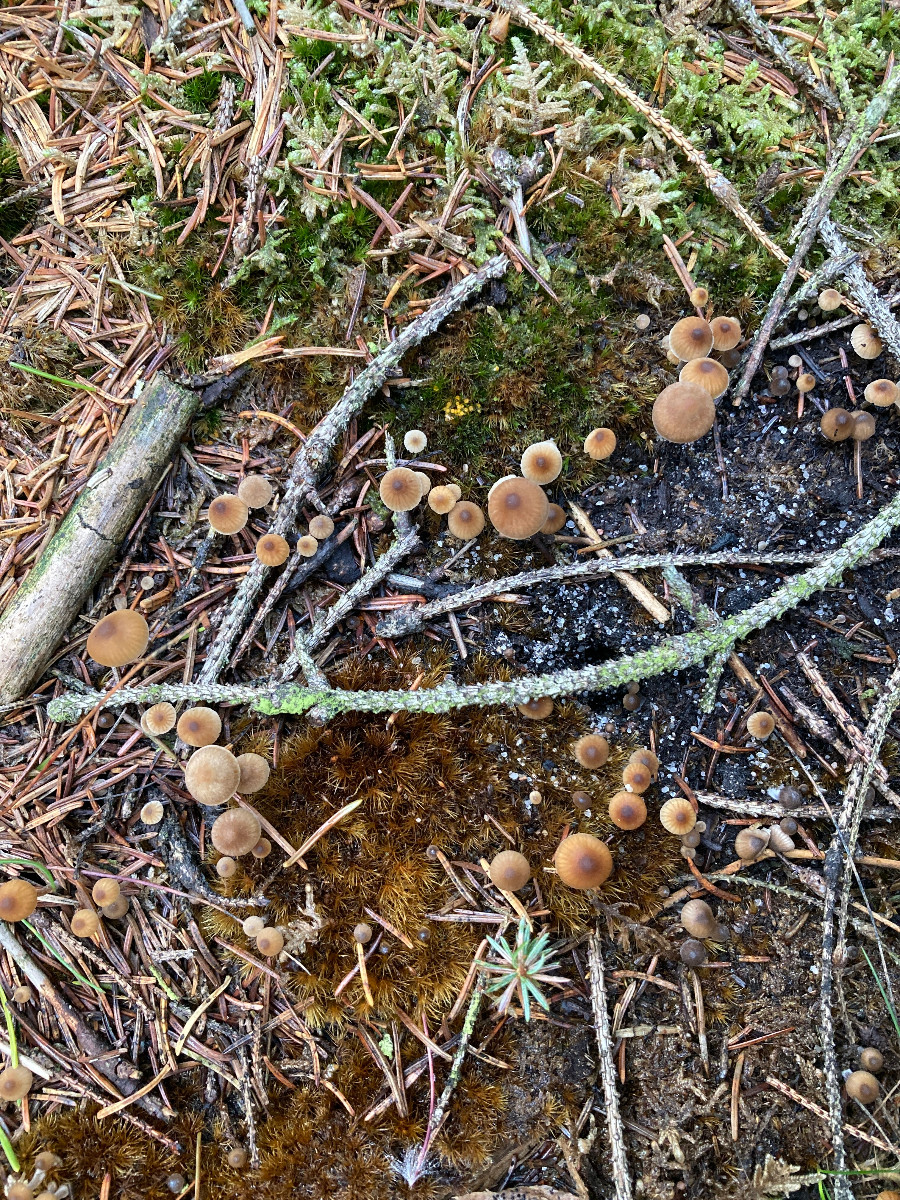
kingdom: Fungi
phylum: Basidiomycota
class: Agaricomycetes
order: Agaricales
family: Lyophyllaceae
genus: Sagaranella
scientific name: Sagaranella tylicolor
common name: kvælstof-gråblad
